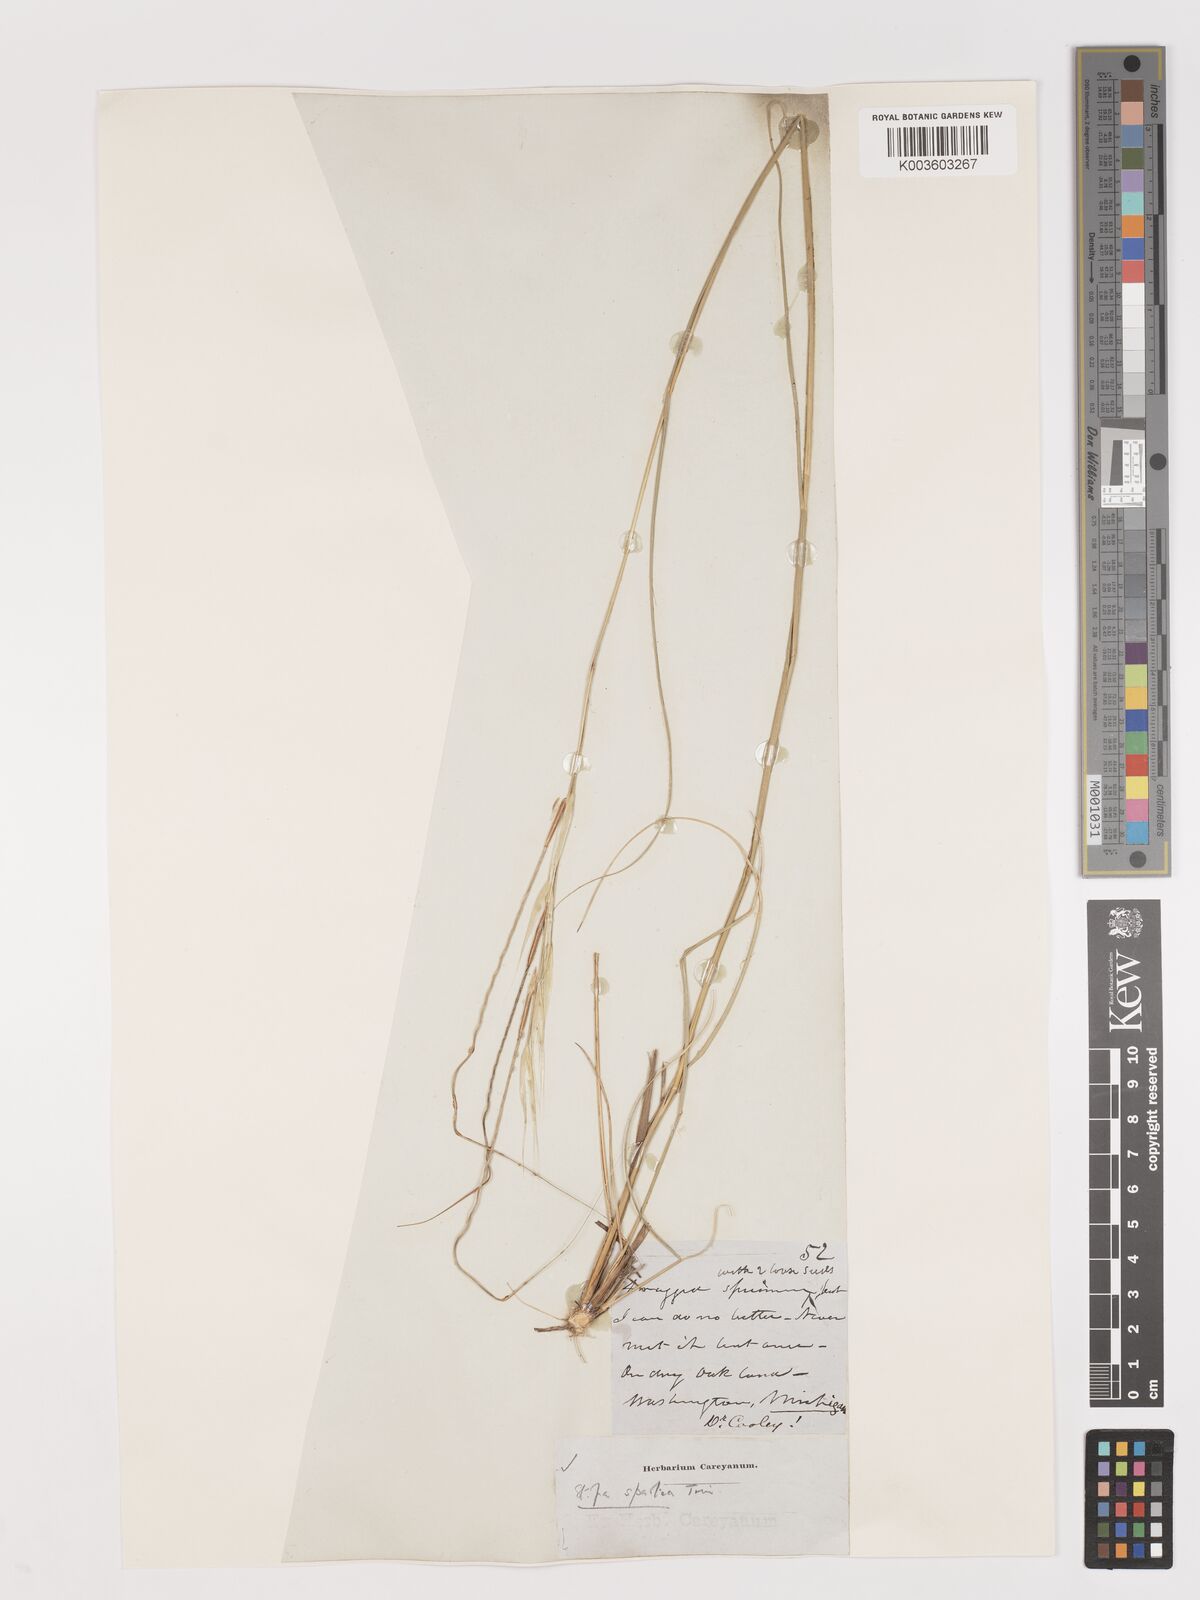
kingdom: Plantae
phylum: Tracheophyta
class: Liliopsida
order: Poales
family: Poaceae
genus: Hesperostipa
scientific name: Hesperostipa spartea
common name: Porcupine grass
